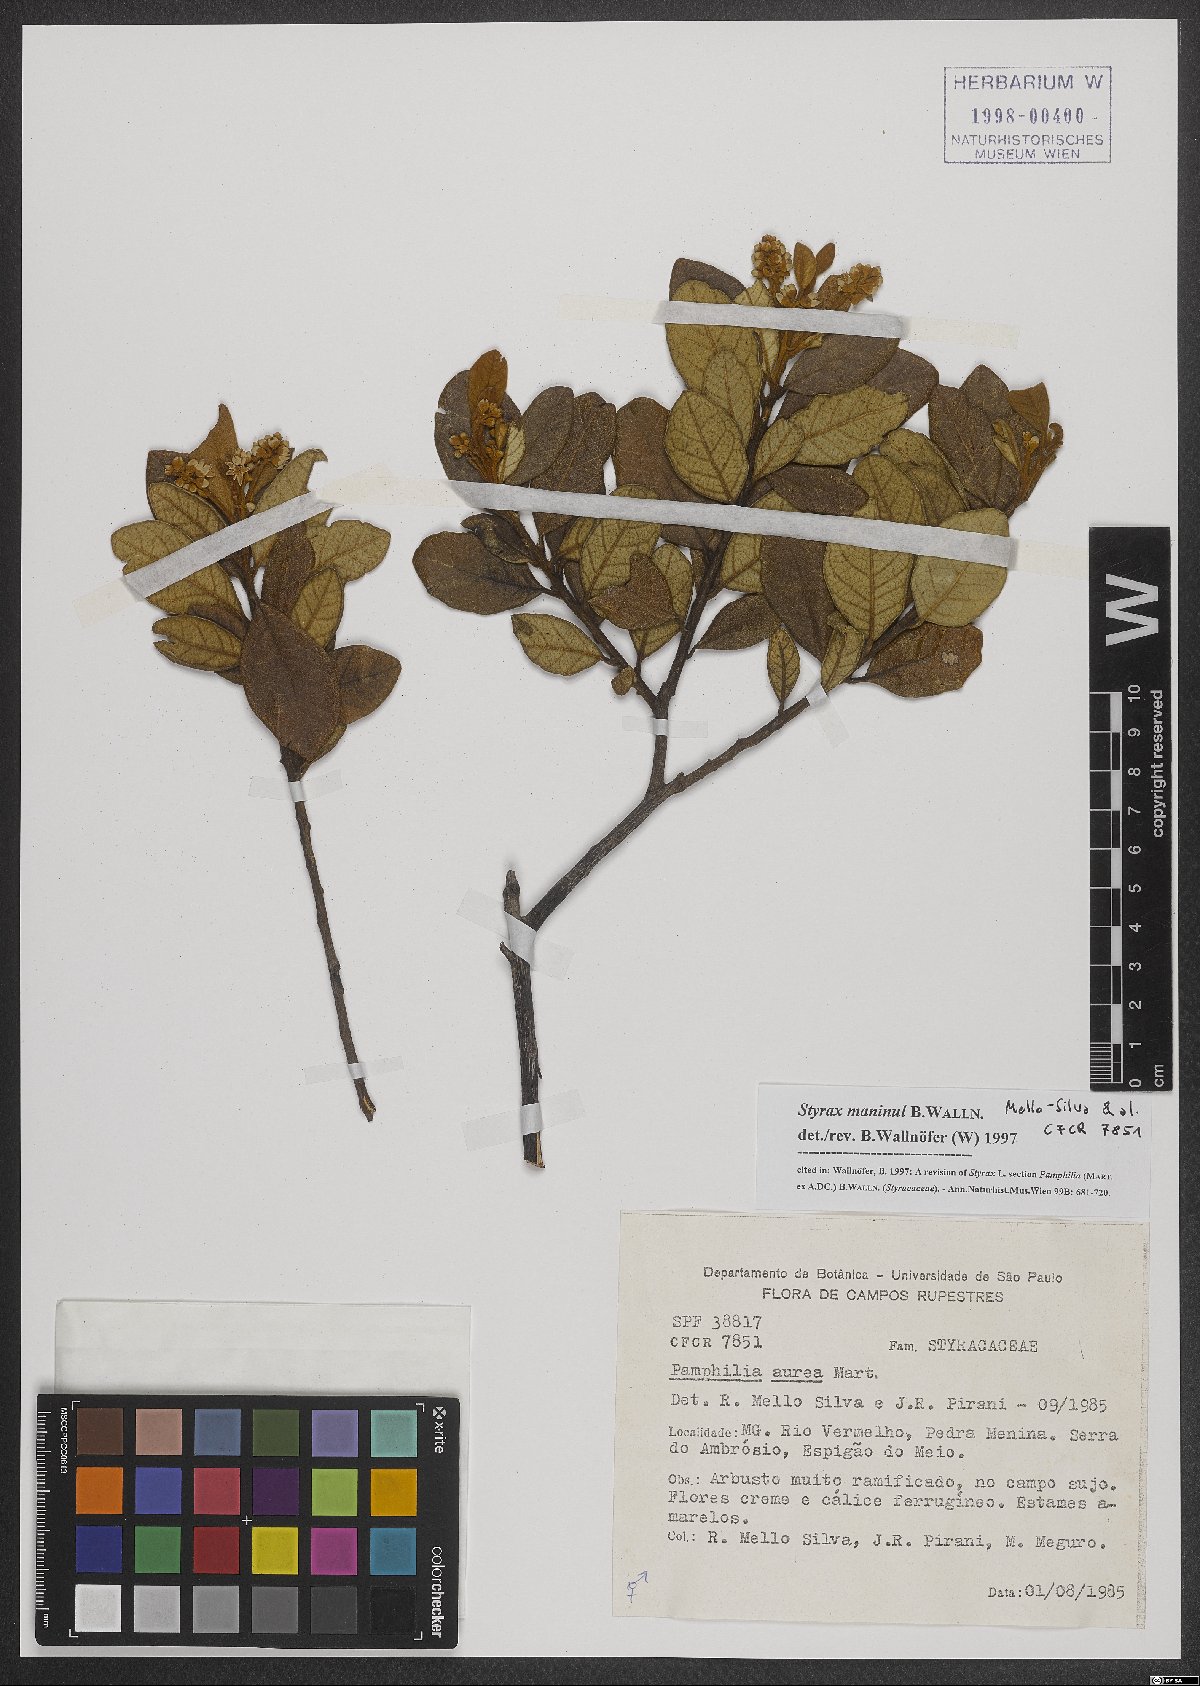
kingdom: Plantae
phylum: Tracheophyta
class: Magnoliopsida
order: Ericales
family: Styracaceae
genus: Styrax
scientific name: Styrax maninul
